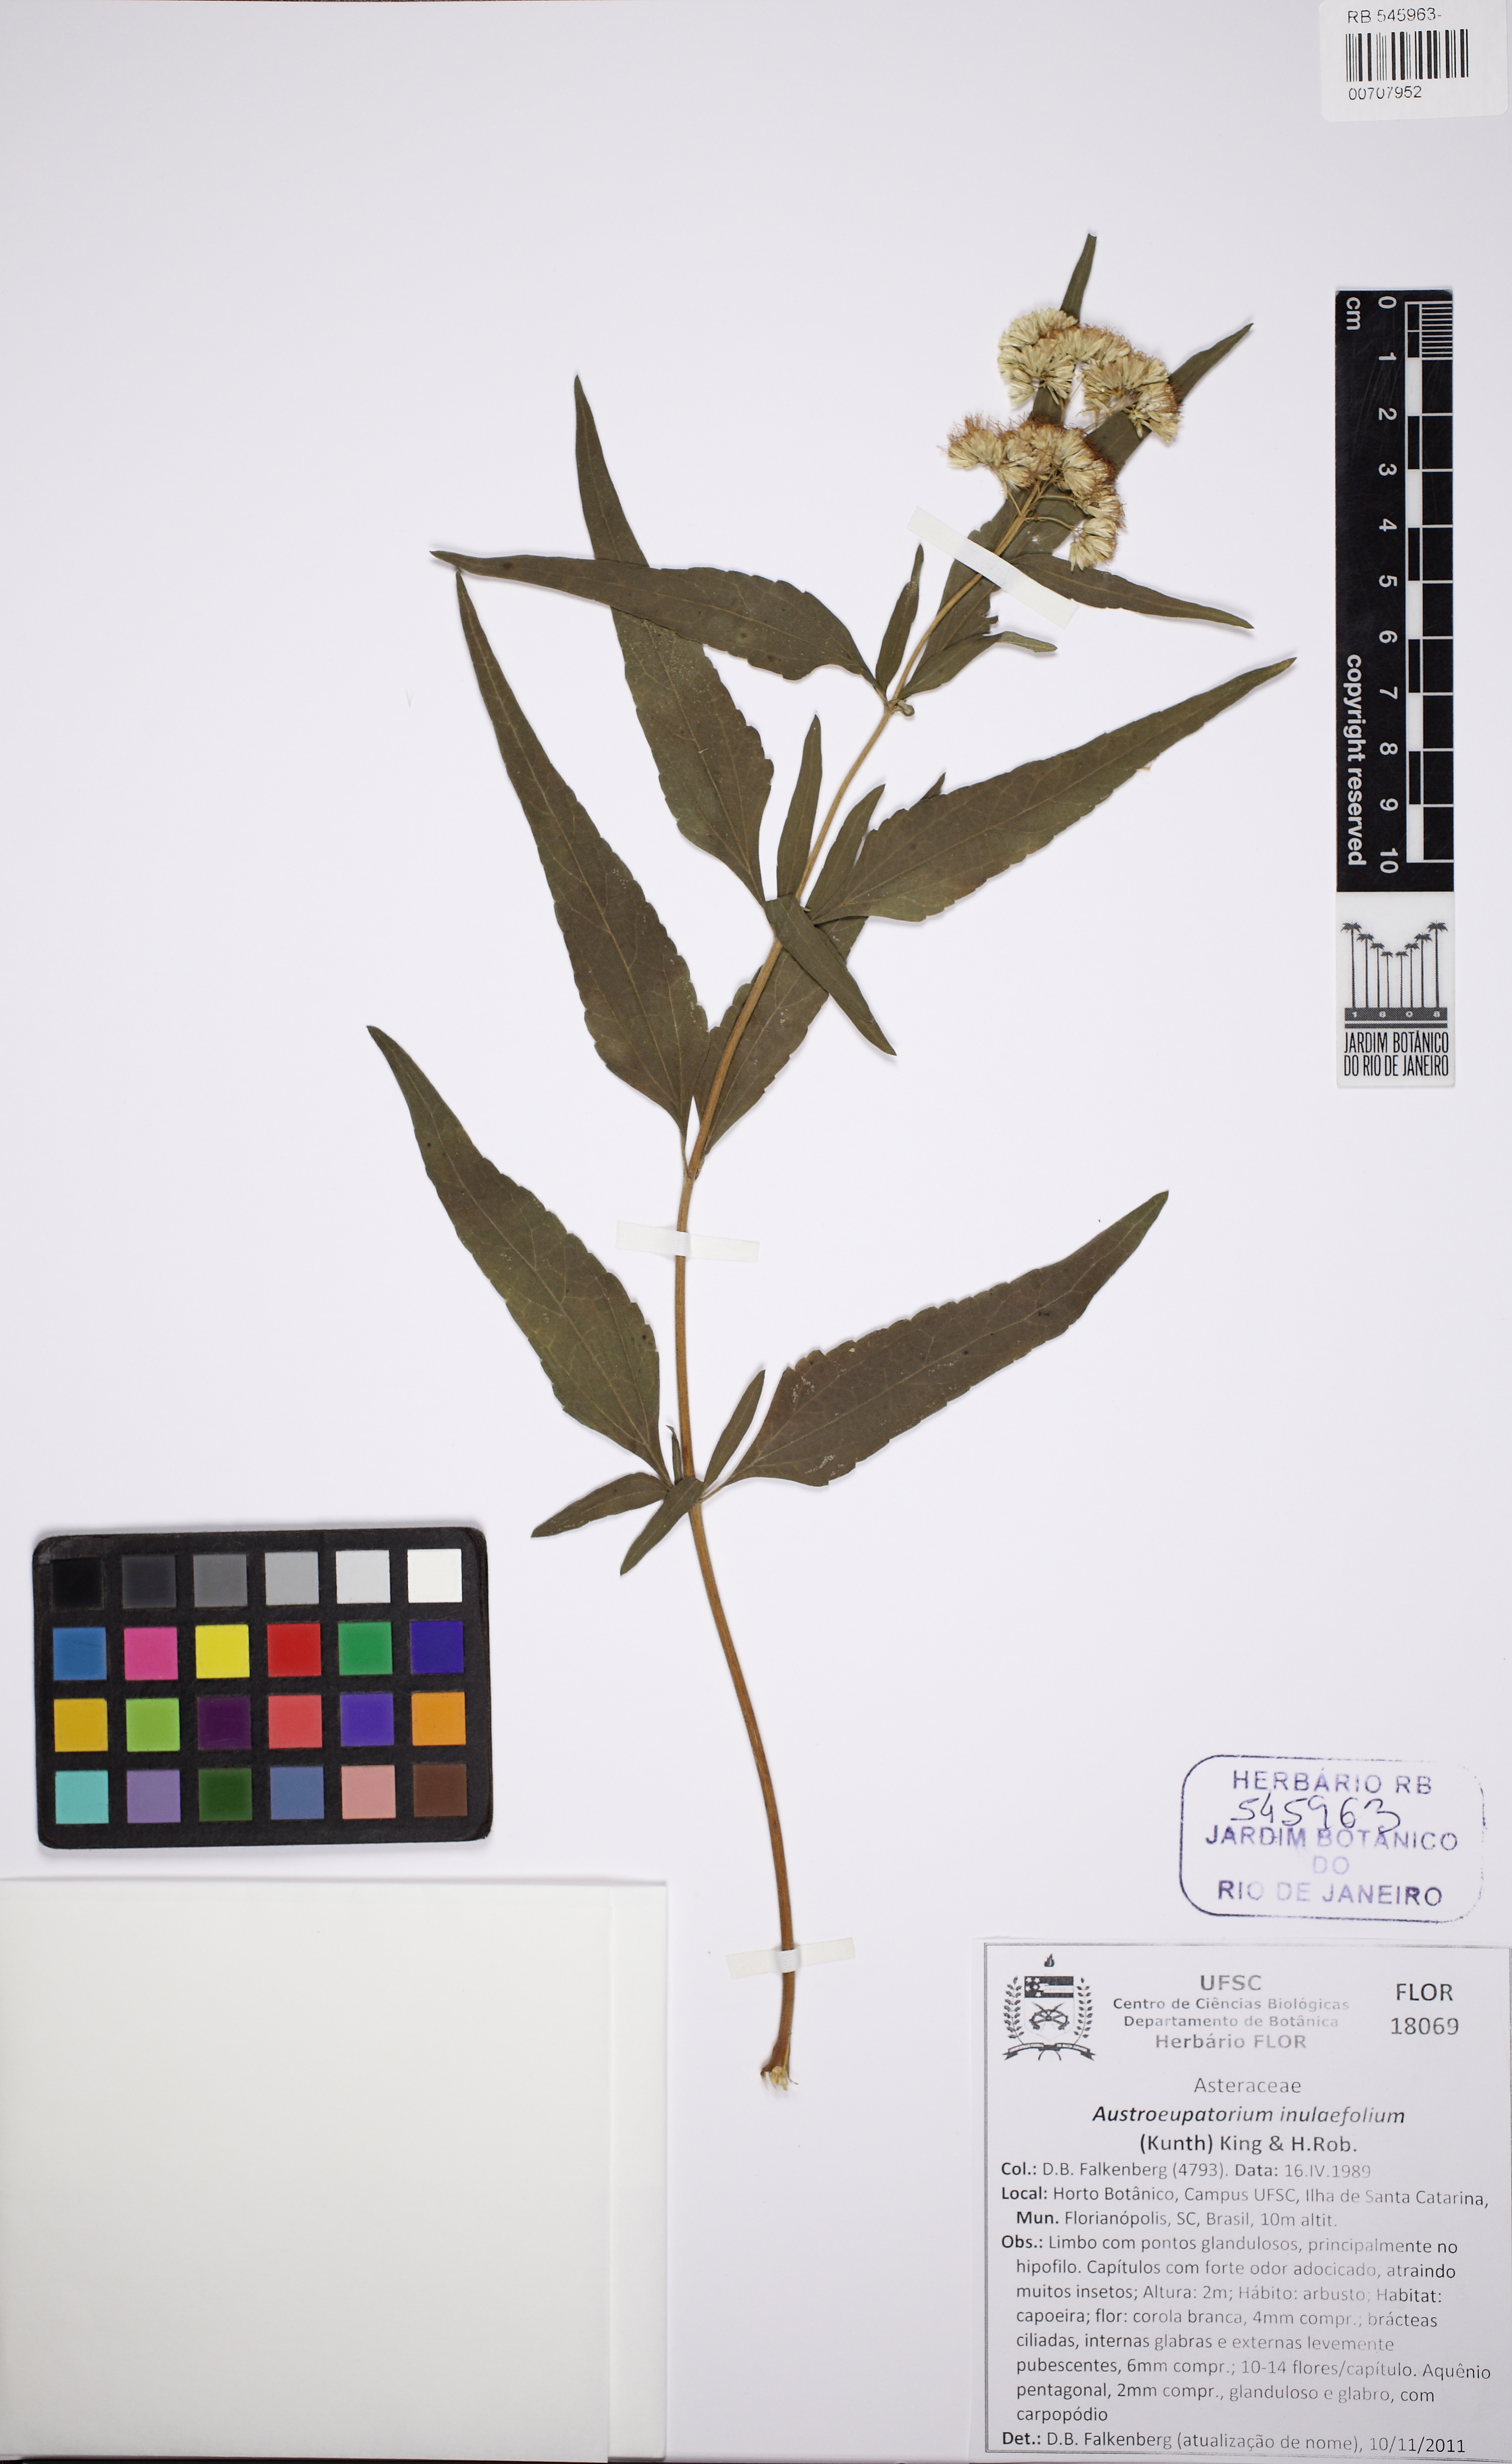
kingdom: Plantae
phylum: Tracheophyta
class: Magnoliopsida
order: Asterales
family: Asteraceae
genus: Austroeupatorium
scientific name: Austroeupatorium inulaefolium
